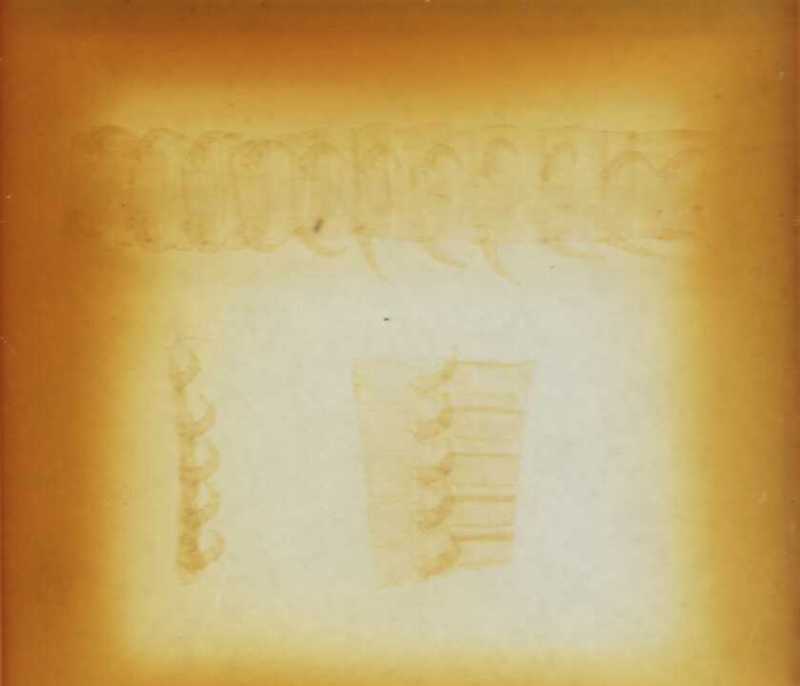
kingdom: Animalia
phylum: Arthropoda
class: Chilopoda
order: Geophilomorpha
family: Geophilidae
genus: Tasmanophilus
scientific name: Tasmanophilus opinatus
